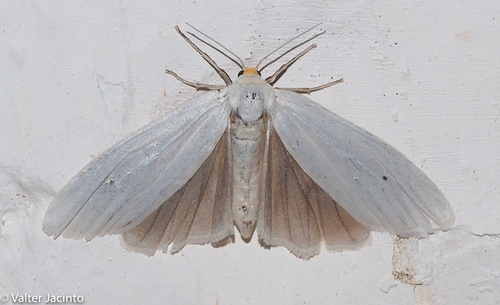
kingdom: Animalia
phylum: Arthropoda
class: Insecta
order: Lepidoptera
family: Erebidae
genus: Coscinia
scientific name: Coscinia cribraria
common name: Speckled footman
